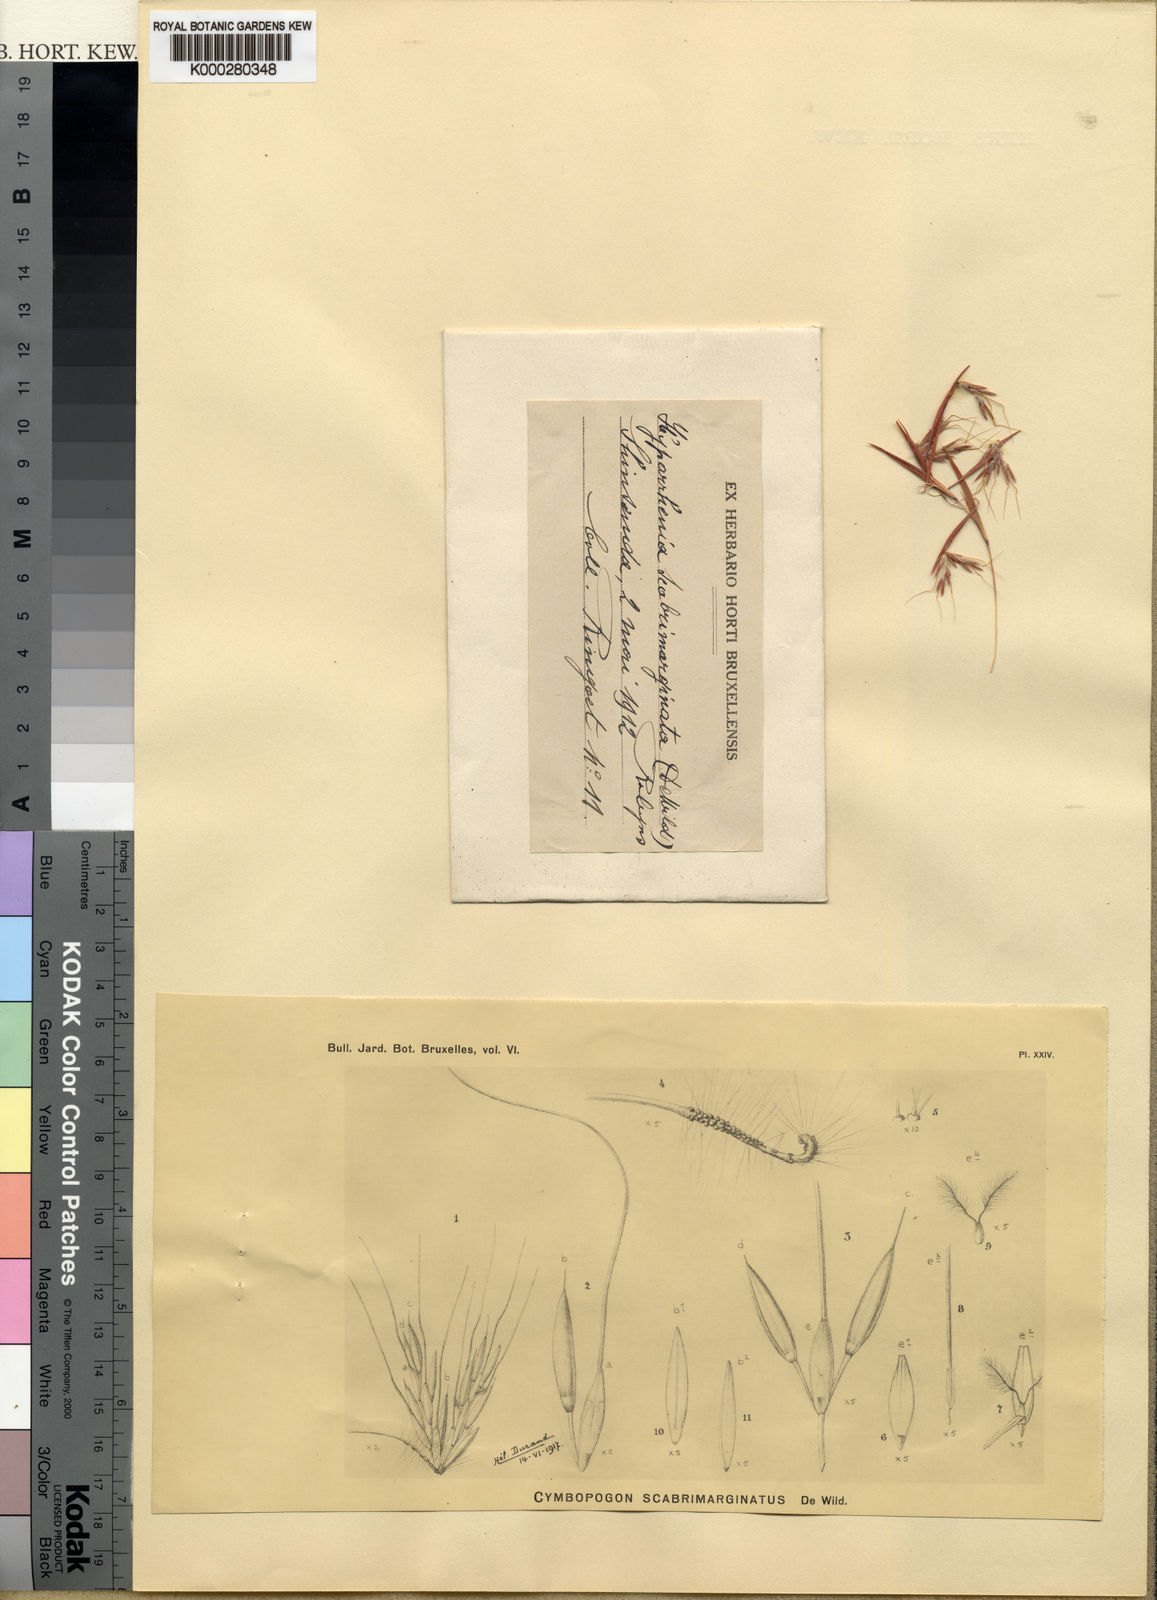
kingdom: Plantae
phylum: Tracheophyta
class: Liliopsida
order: Poales
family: Poaceae
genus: Hyparrhenia
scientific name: Hyparrhenia collina
